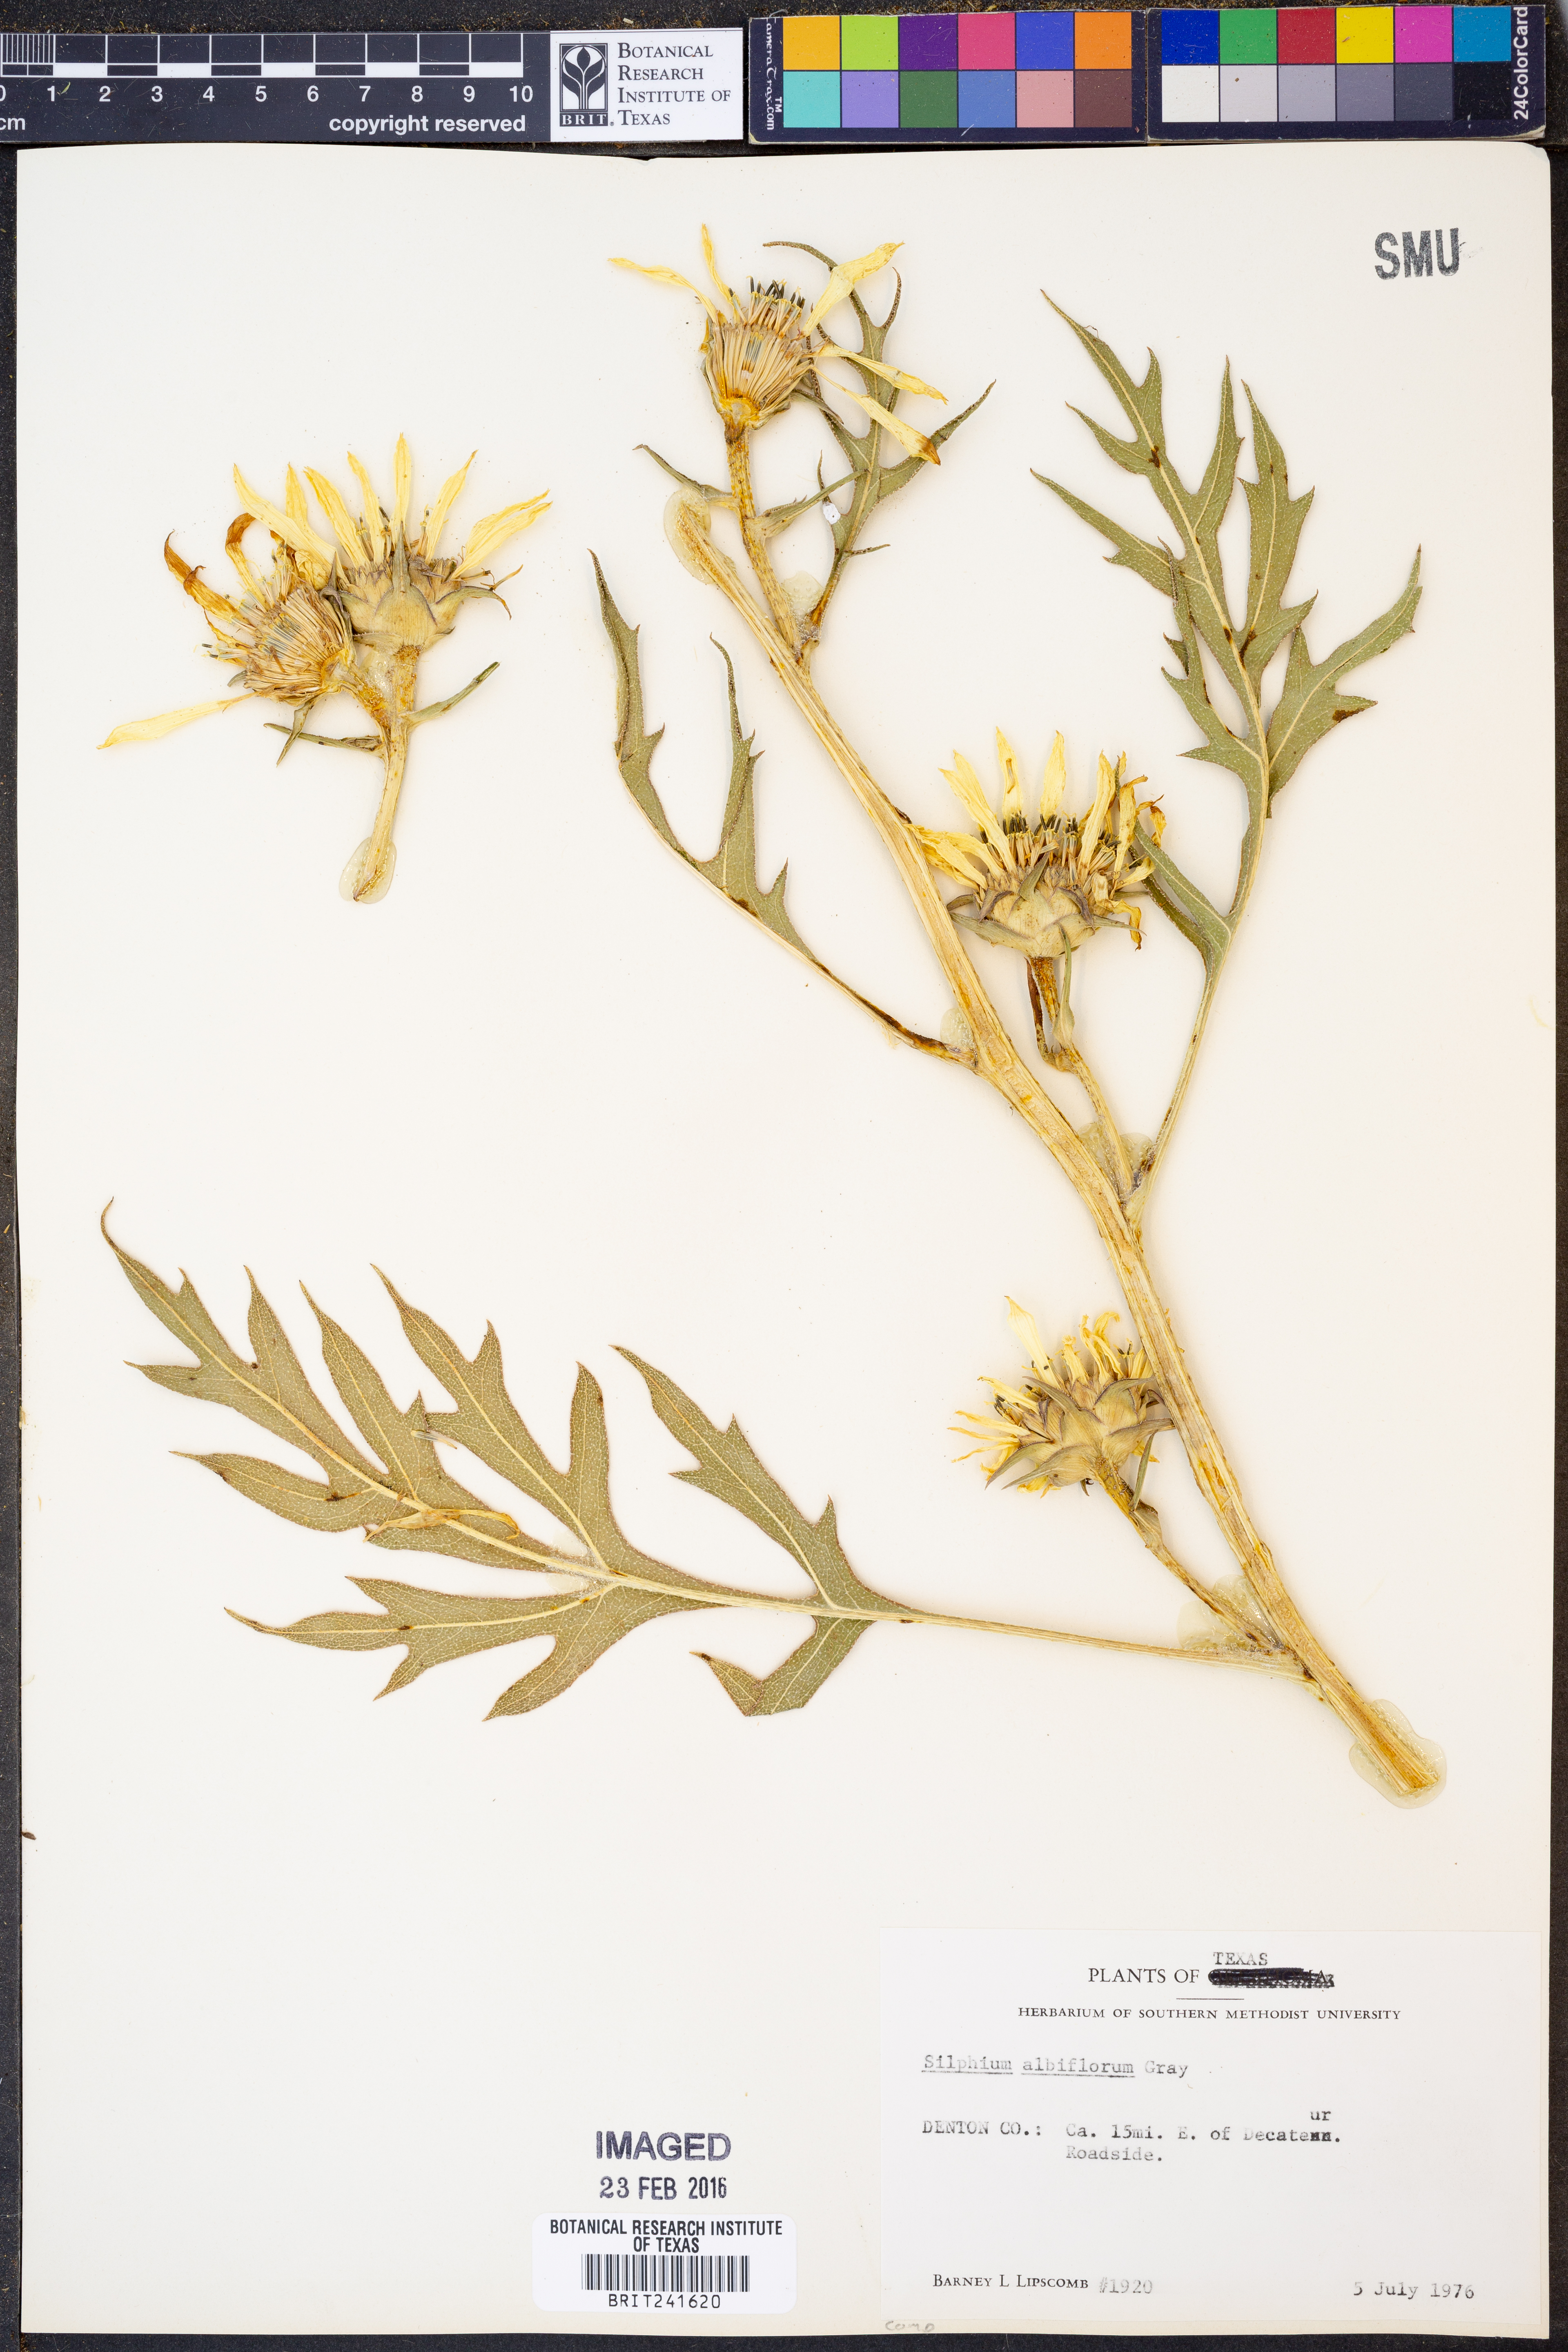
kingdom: Plantae
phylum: Tracheophyta
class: Magnoliopsida
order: Asterales
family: Asteraceae
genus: Silphium
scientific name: Silphium albiflorum
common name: White rosinweed
